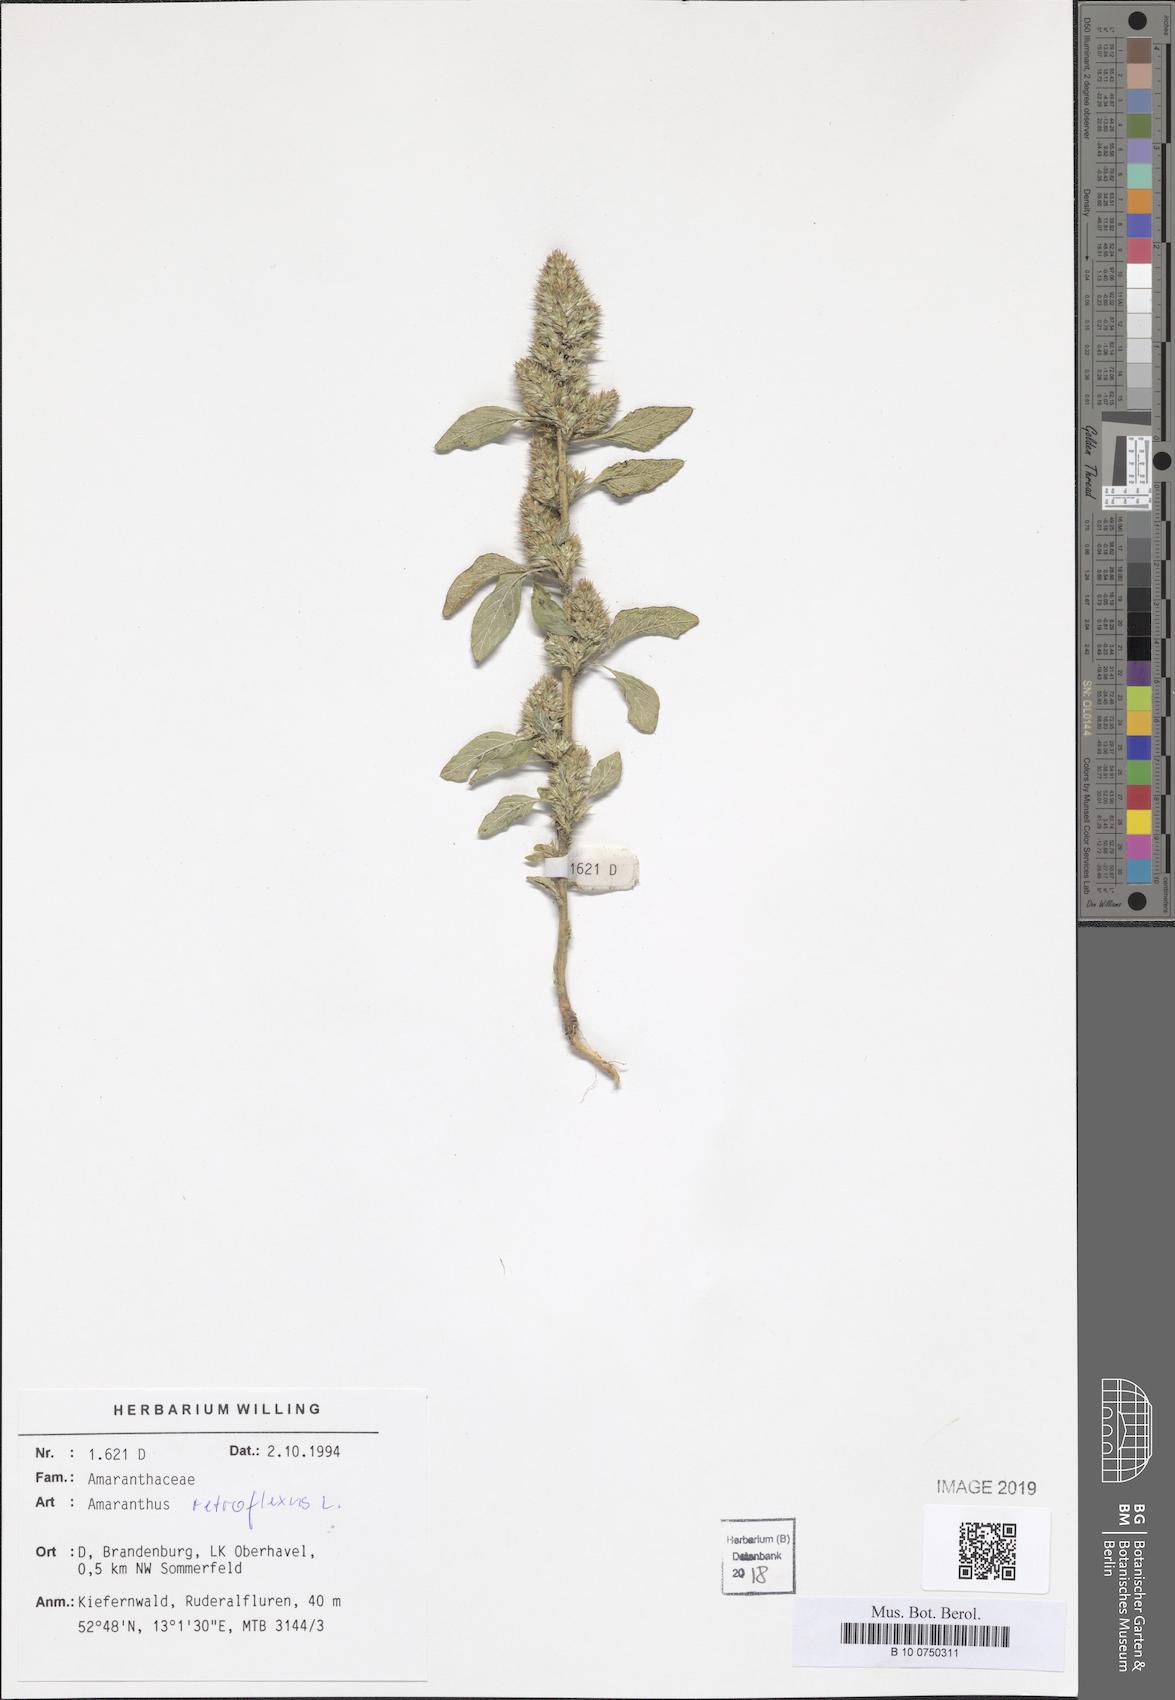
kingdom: Plantae
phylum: Tracheophyta
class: Magnoliopsida
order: Caryophyllales
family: Amaranthaceae
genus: Amaranthus
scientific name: Amaranthus retroflexus
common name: Redroot amaranth
